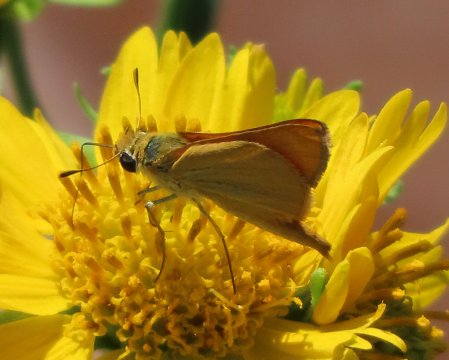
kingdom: Animalia
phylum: Arthropoda
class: Insecta
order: Lepidoptera
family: Hesperiidae
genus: Copaeodes
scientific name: Copaeodes aurantiaca
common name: Orange Skipperling
